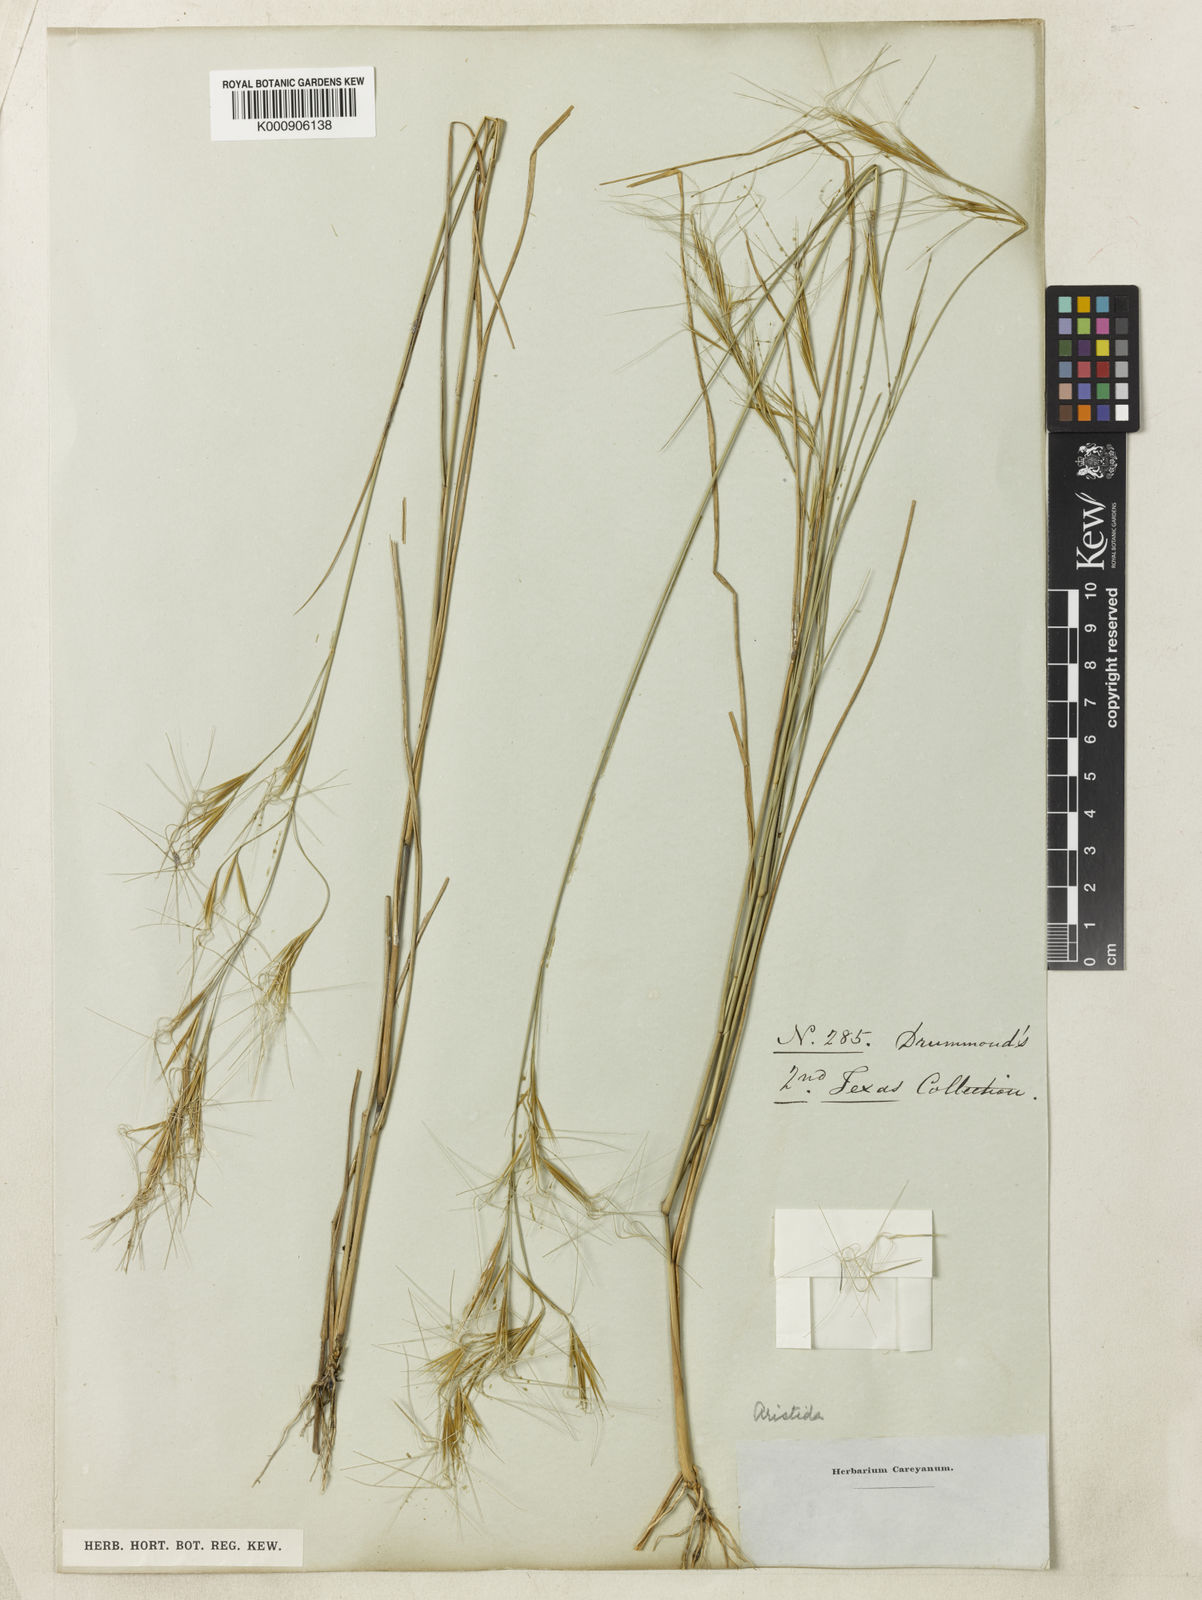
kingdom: Plantae
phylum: Tracheophyta
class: Liliopsida
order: Poales
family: Poaceae
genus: Aristida
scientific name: Aristida desmantha
